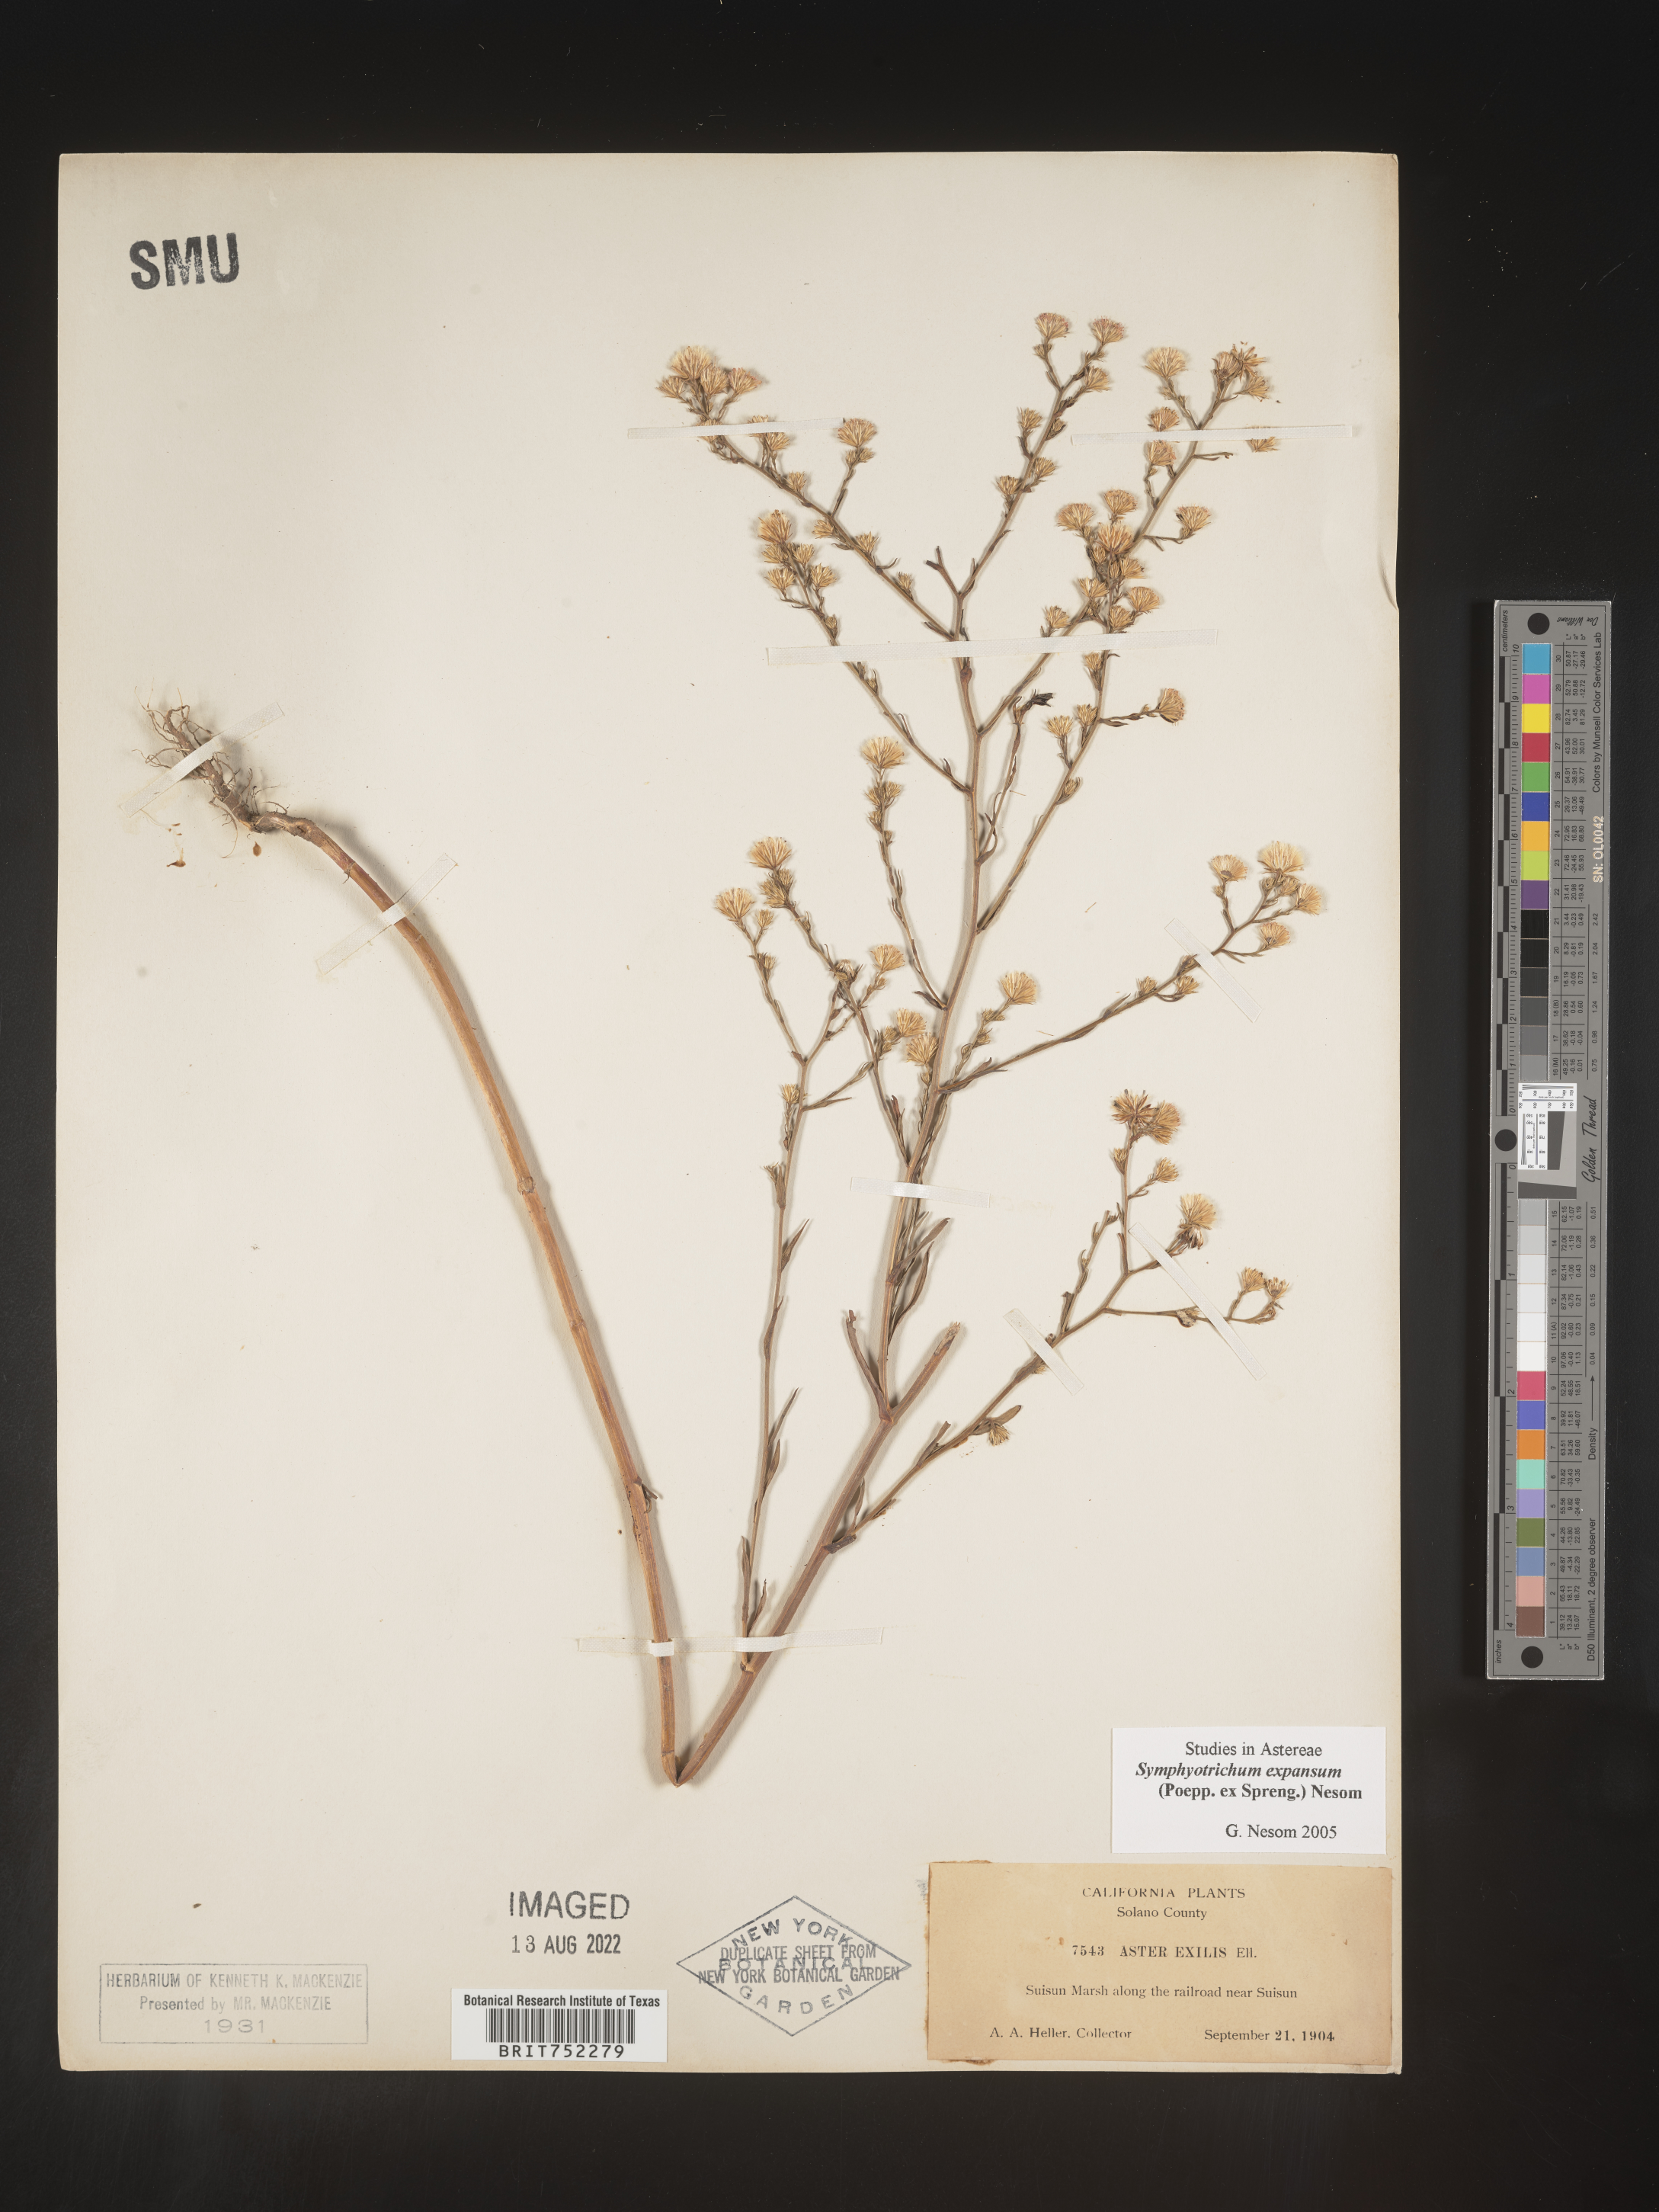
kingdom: Plantae
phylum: Tracheophyta
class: Magnoliopsida
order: Asterales
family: Asteraceae
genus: Symphyotrichum
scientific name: Symphyotrichum expansum
